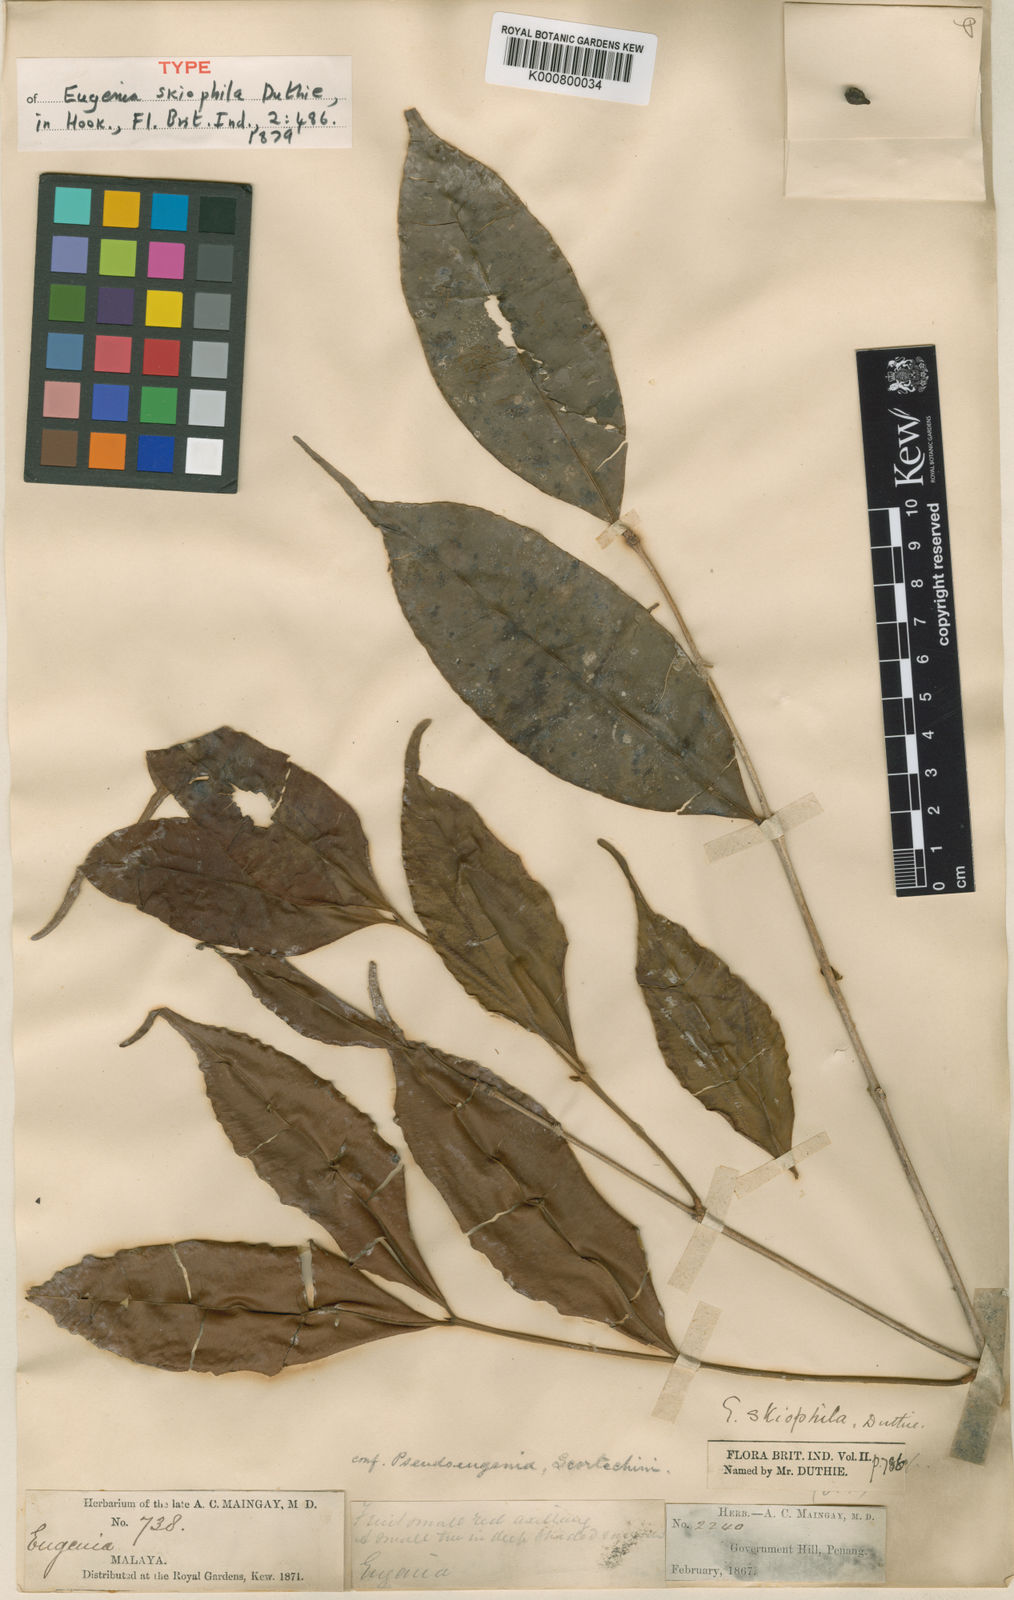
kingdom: Plantae
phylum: Tracheophyta
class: Magnoliopsida
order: Myrtales
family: Myrtaceae
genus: Syzygium
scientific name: Syzygium skiophilum
